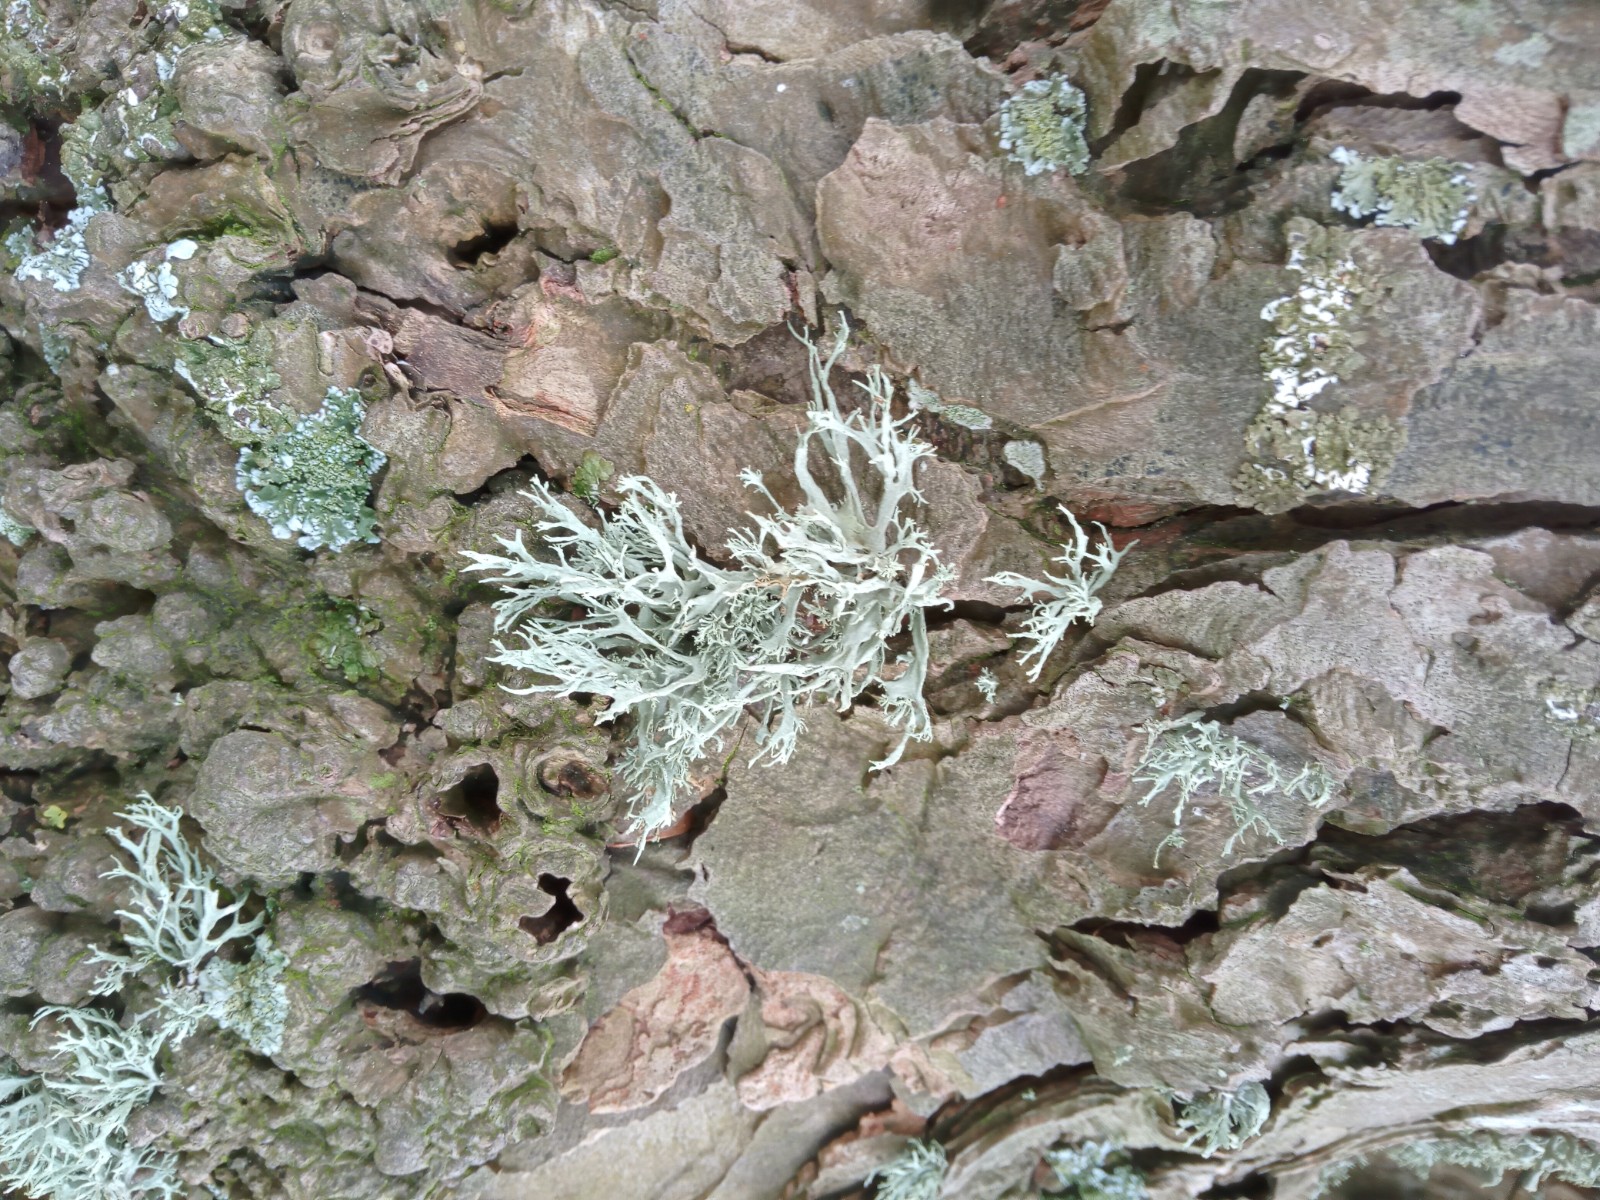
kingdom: Fungi
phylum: Ascomycota
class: Lecanoromycetes
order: Lecanorales
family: Ramalinaceae
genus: Ramalina
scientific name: Ramalina farinacea
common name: melet grenlav
